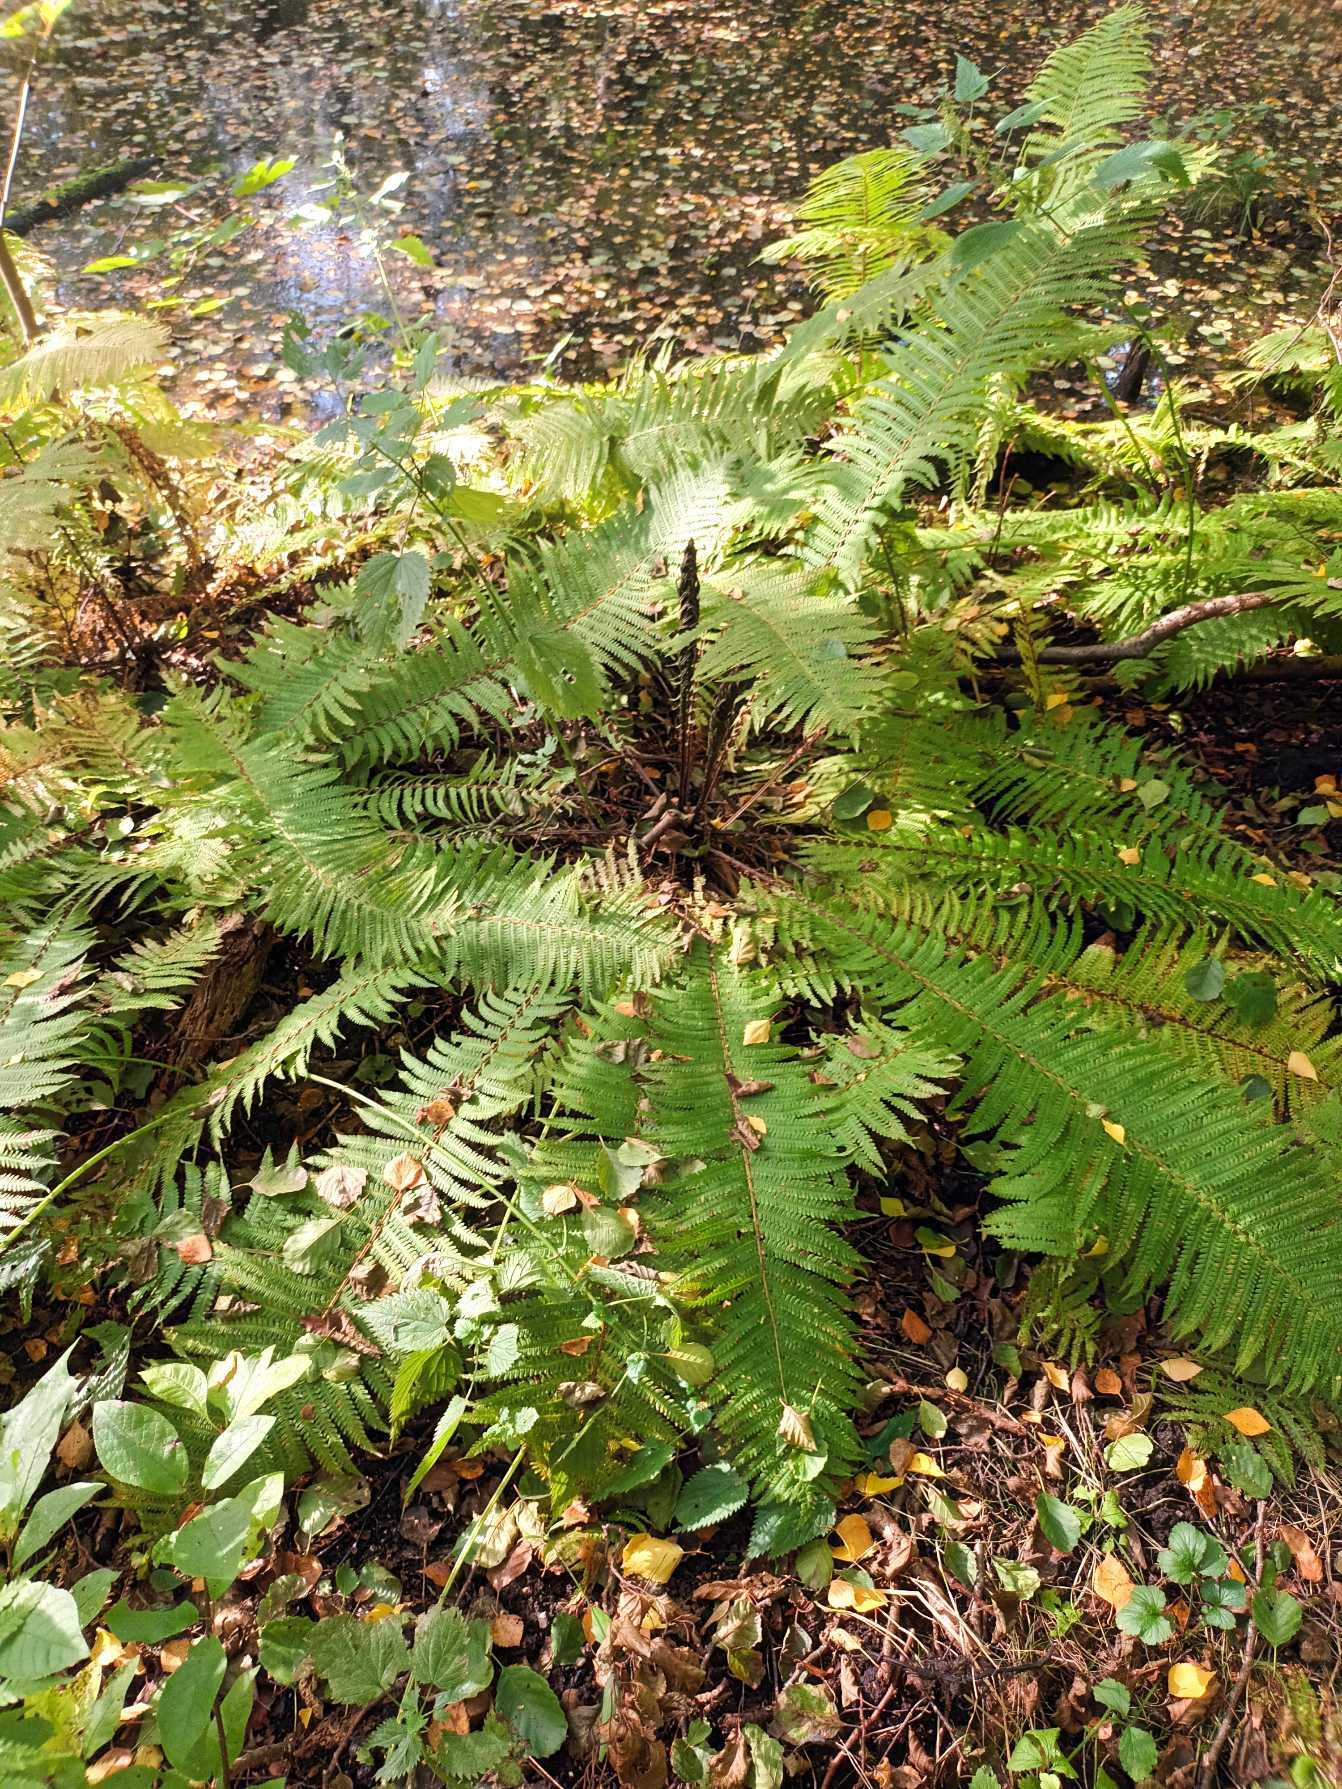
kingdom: Plantae
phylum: Tracheophyta
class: Polypodiopsida
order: Polypodiales
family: Onocleaceae
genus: Matteuccia
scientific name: Matteuccia struthiopteris
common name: Strudsvinge
